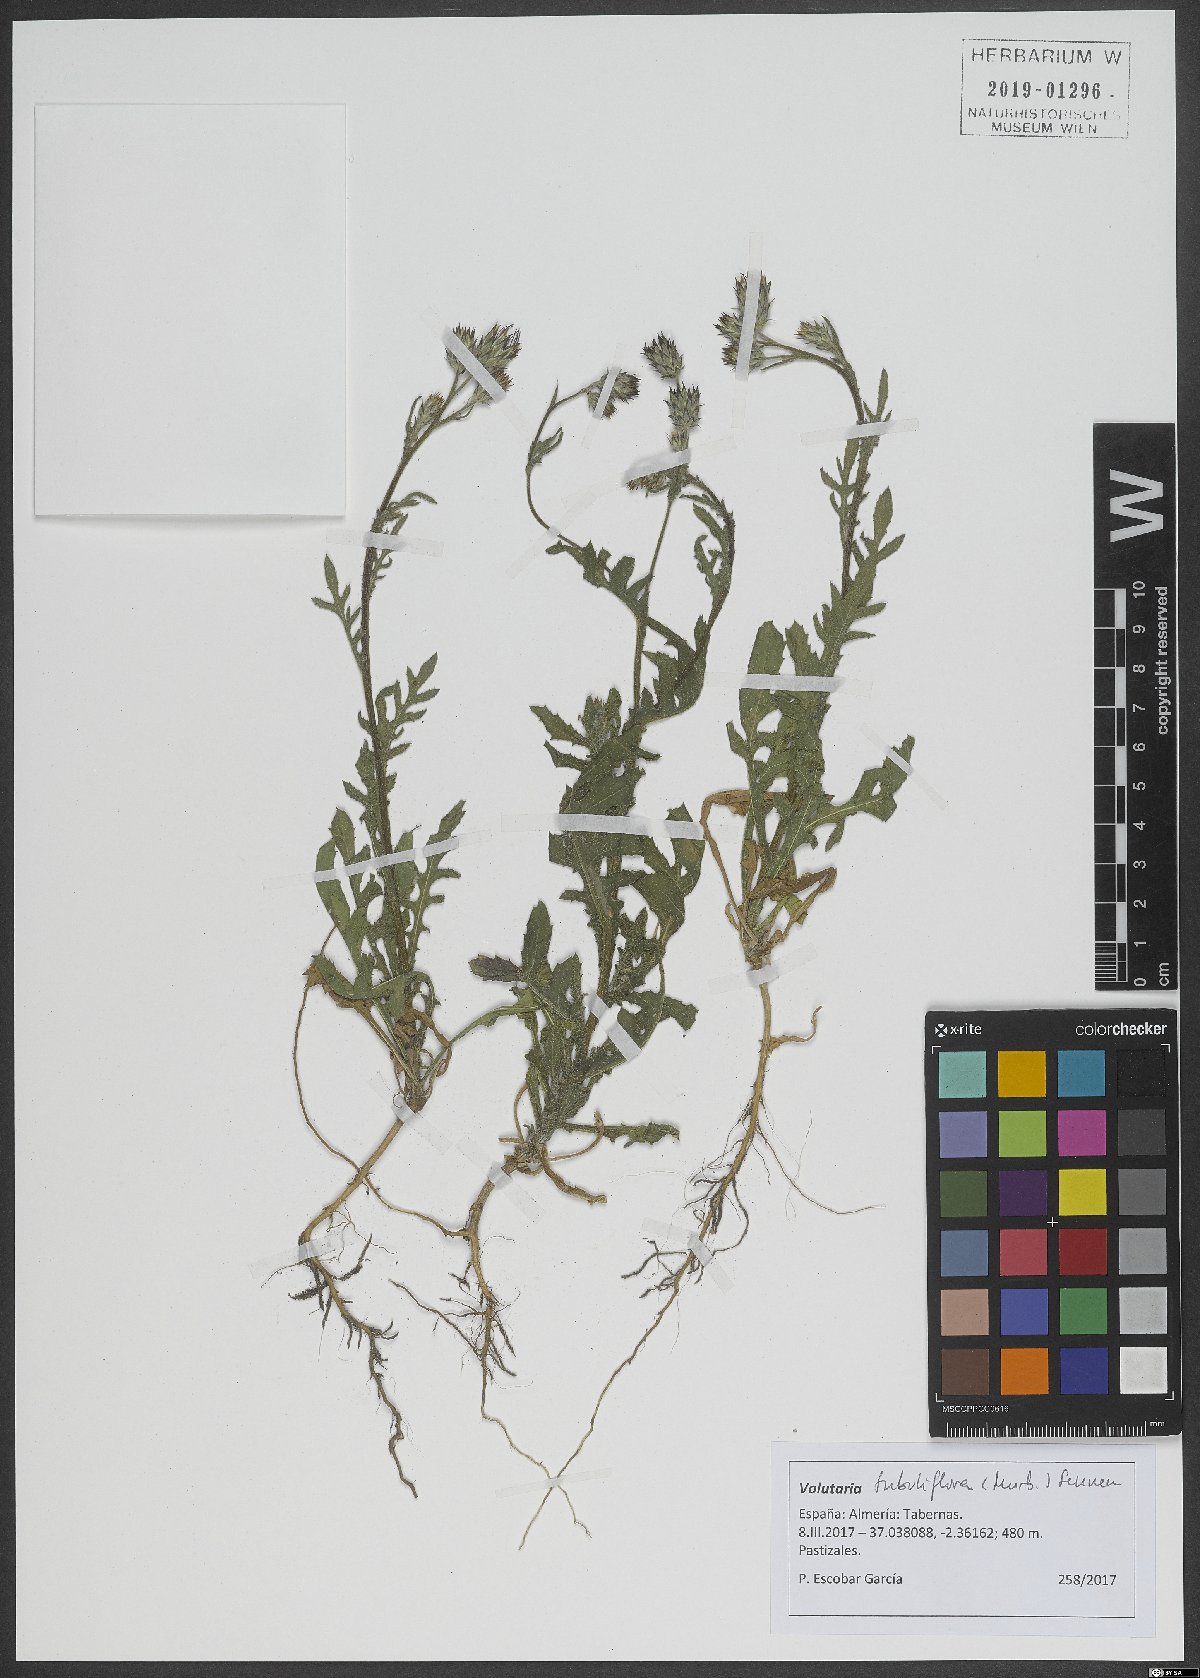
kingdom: Plantae
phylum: Tracheophyta
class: Magnoliopsida
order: Asterales
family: Asteraceae
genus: Volutaria
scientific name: Volutaria tubuliflora
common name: Desert knapweed
